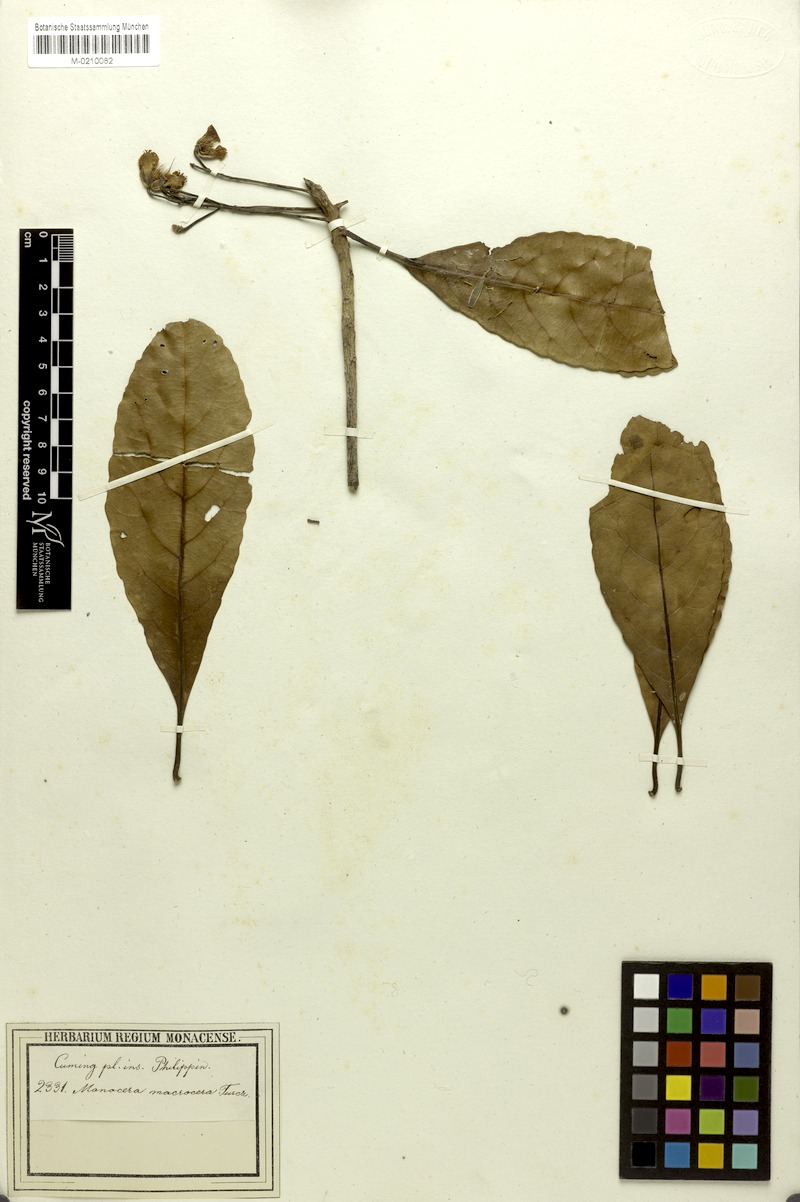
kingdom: Plantae
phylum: Tracheophyta
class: Magnoliopsida
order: Oxalidales
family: Elaeocarpaceae
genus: Elaeocarpus
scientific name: Elaeocarpus macrocerus
